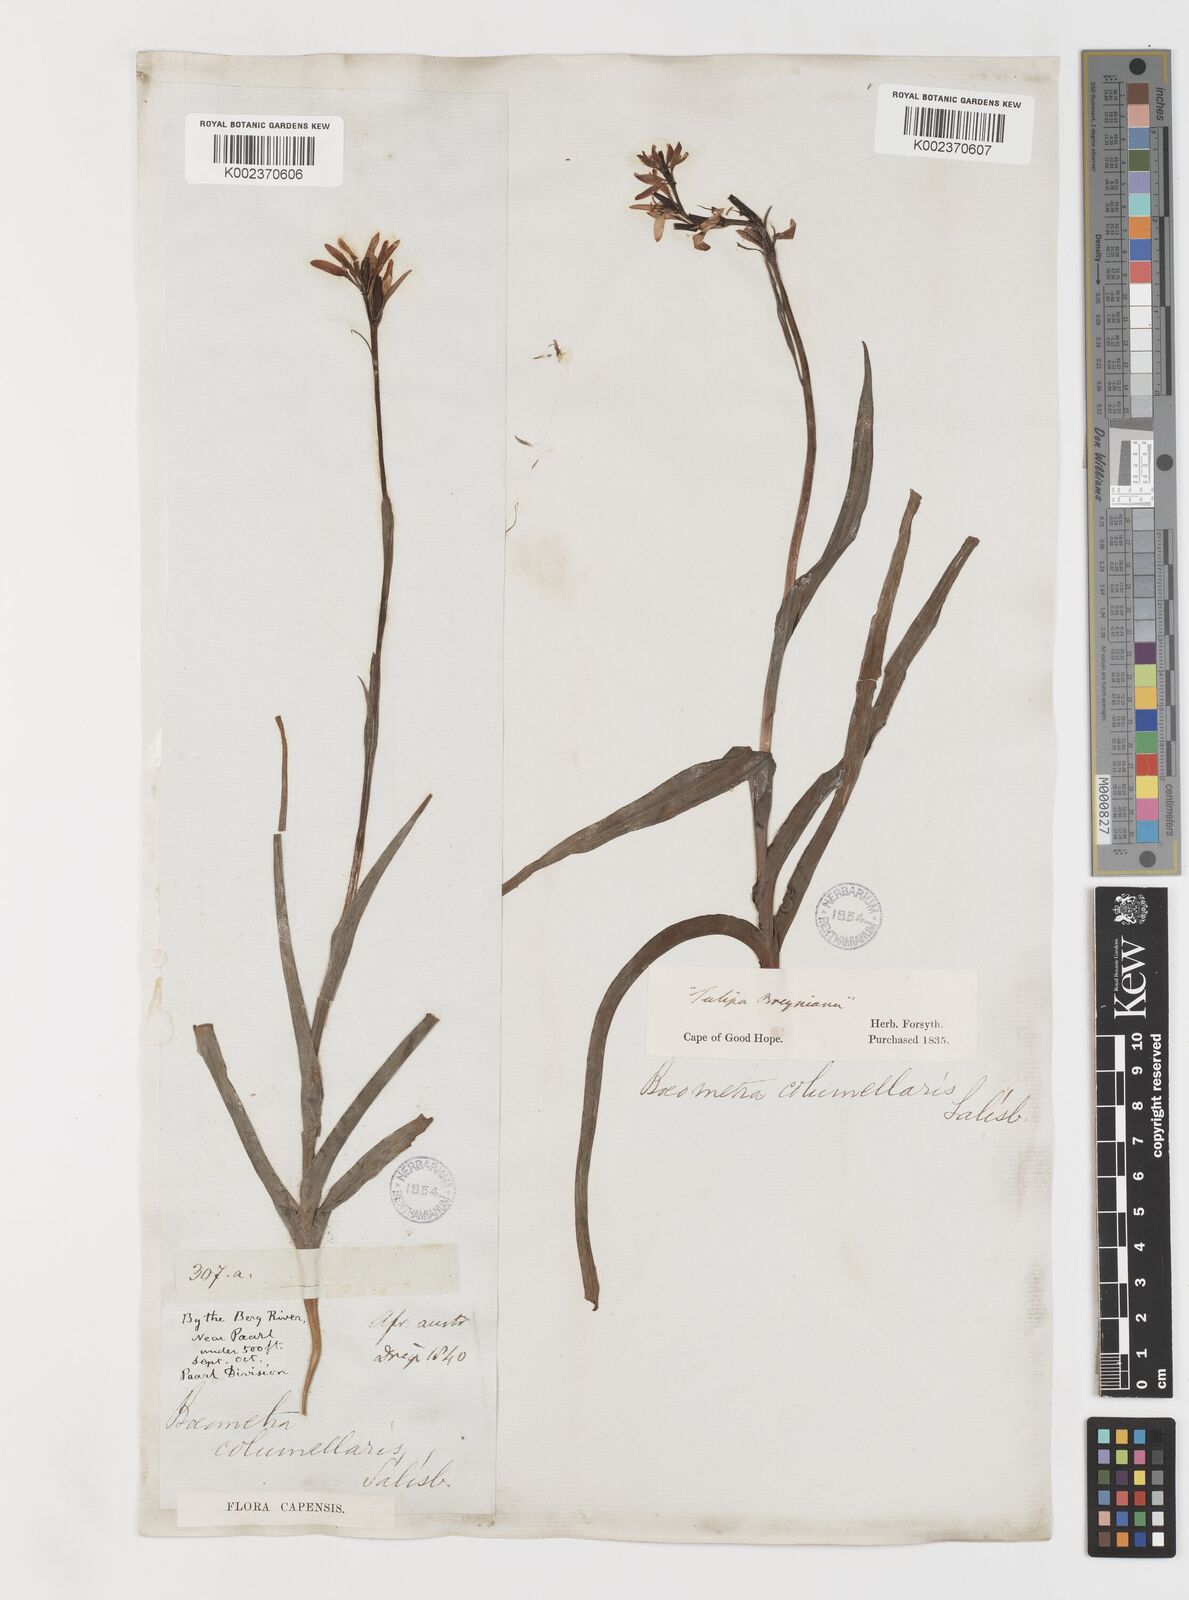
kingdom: Plantae
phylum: Tracheophyta
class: Liliopsida
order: Liliales
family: Colchicaceae
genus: Baeometra
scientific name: Baeometra uniflora
